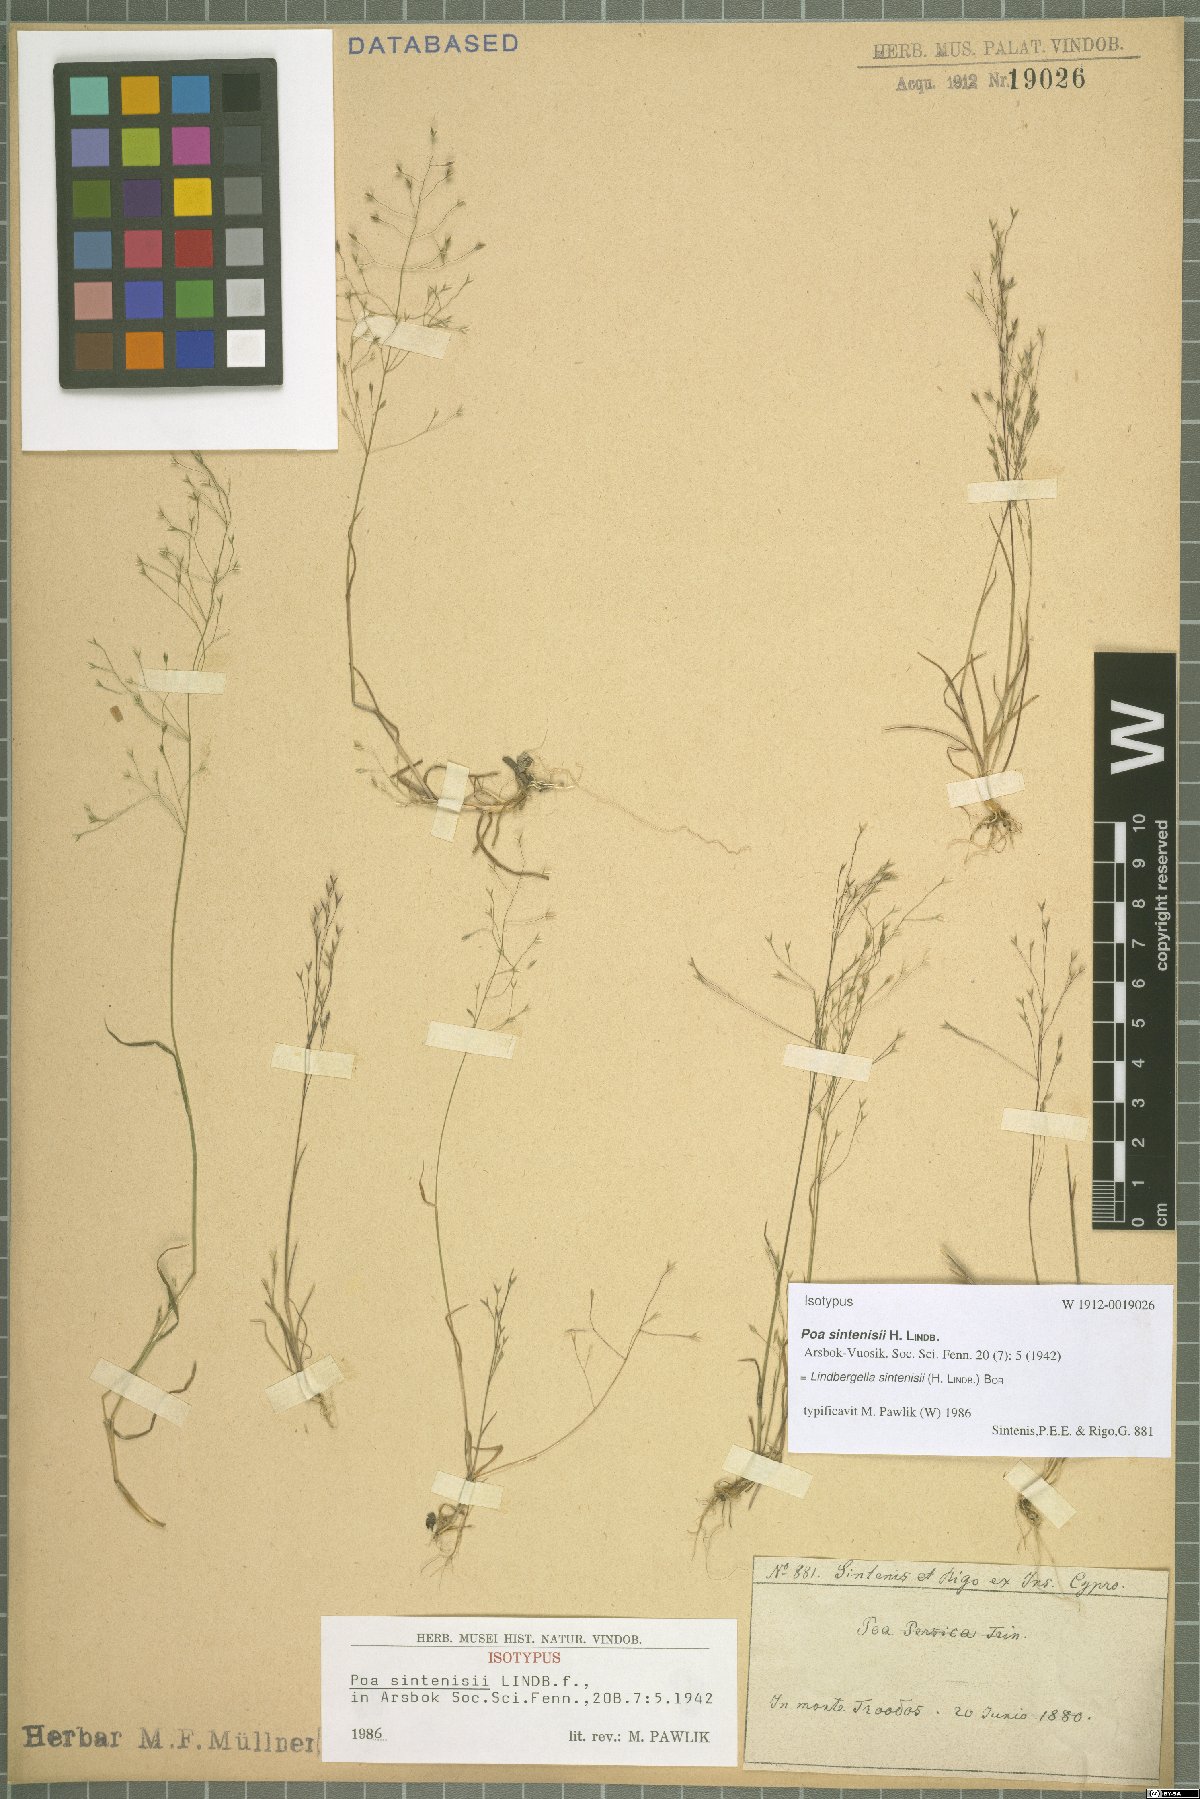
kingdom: Plantae
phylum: Tracheophyta
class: Liliopsida
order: Poales
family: Poaceae
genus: Poa
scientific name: Poa sintenisii
